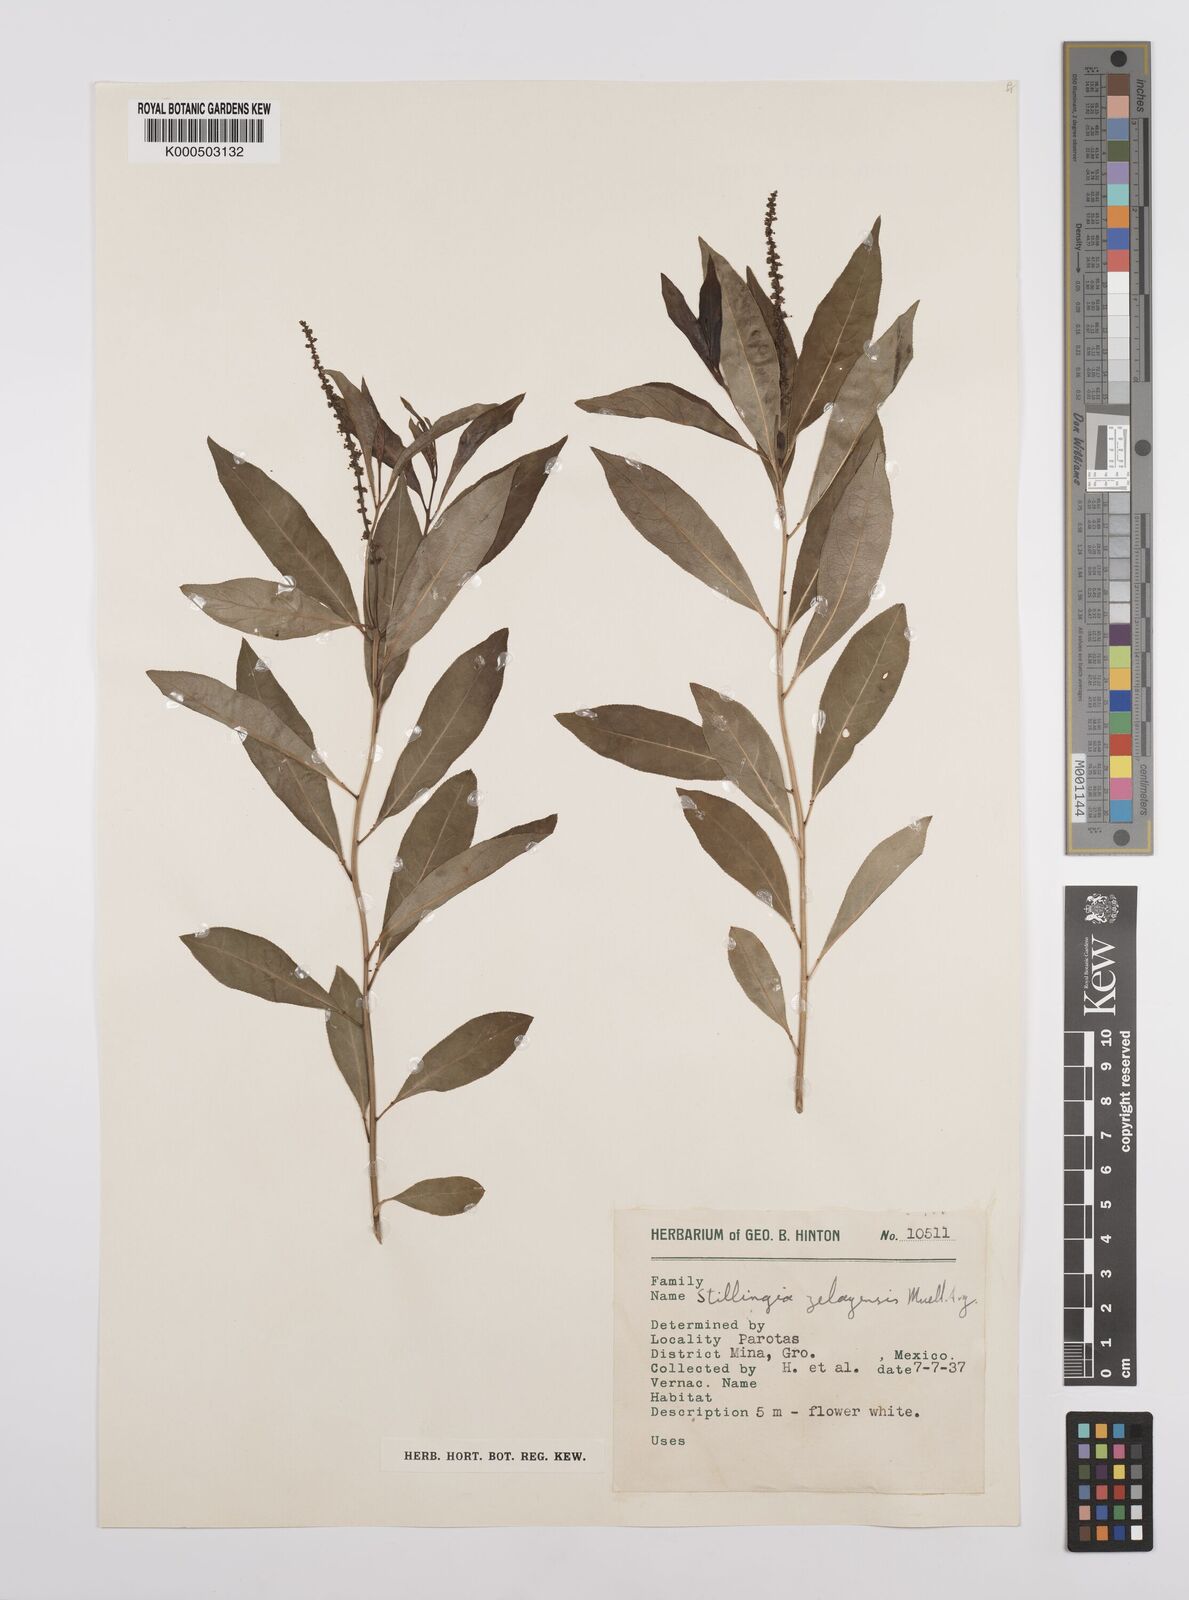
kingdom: Plantae
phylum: Tracheophyta
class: Magnoliopsida
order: Malpighiales
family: Euphorbiaceae
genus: Stillingia
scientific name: Stillingia
